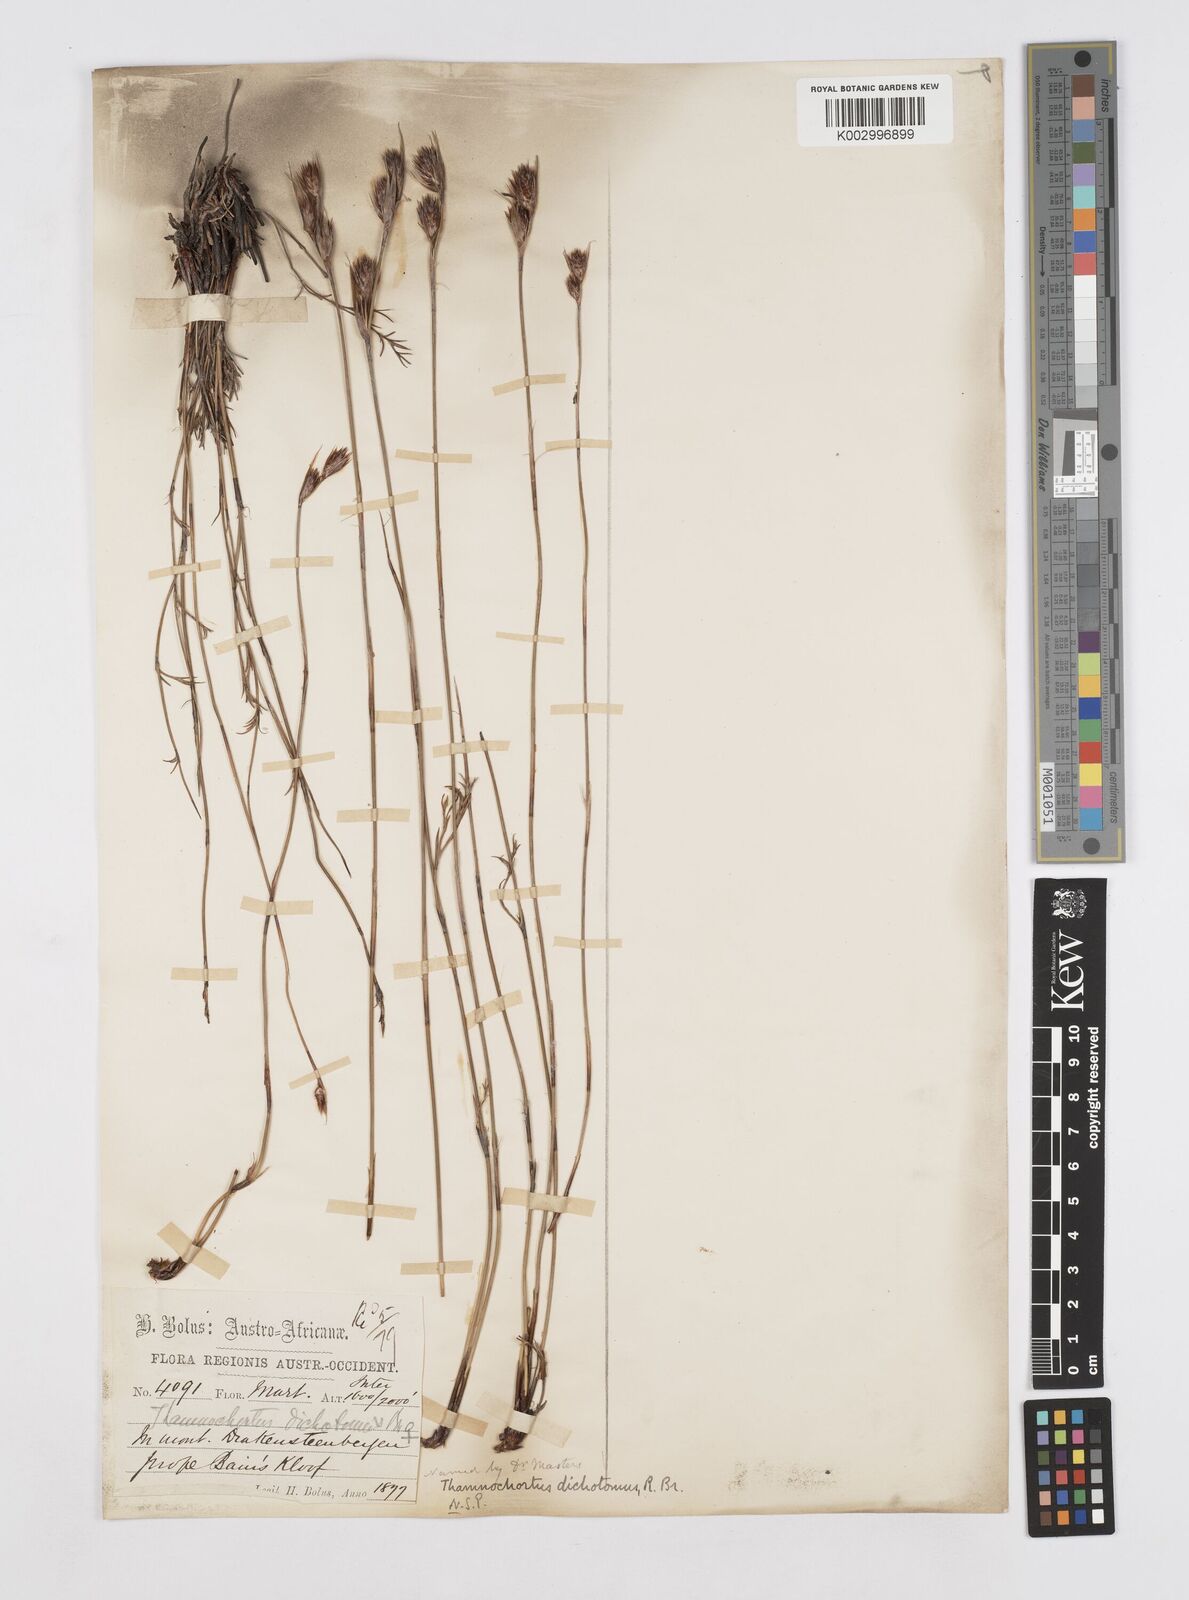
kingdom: Plantae
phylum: Tracheophyta
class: Liliopsida
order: Poales
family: Restionaceae
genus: Thamnochortus
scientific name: Thamnochortus lucens
